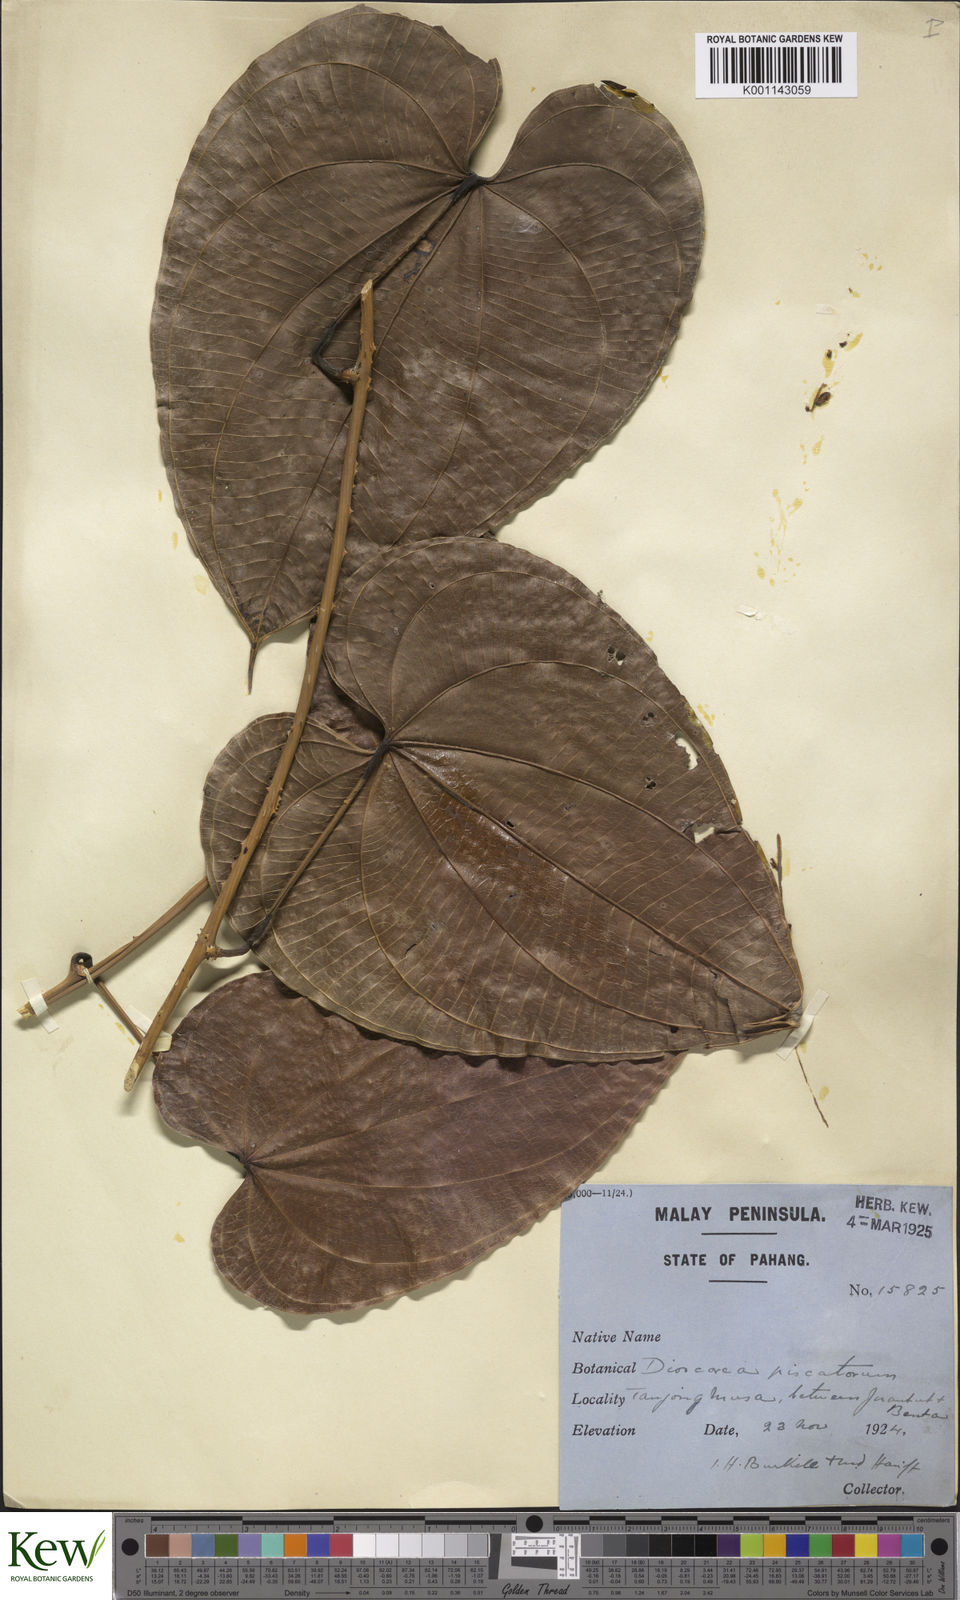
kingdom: Plantae
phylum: Tracheophyta
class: Liliopsida
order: Dioscoreales
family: Dioscoreaceae
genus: Dioscorea
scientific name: Dioscorea piscatorum
